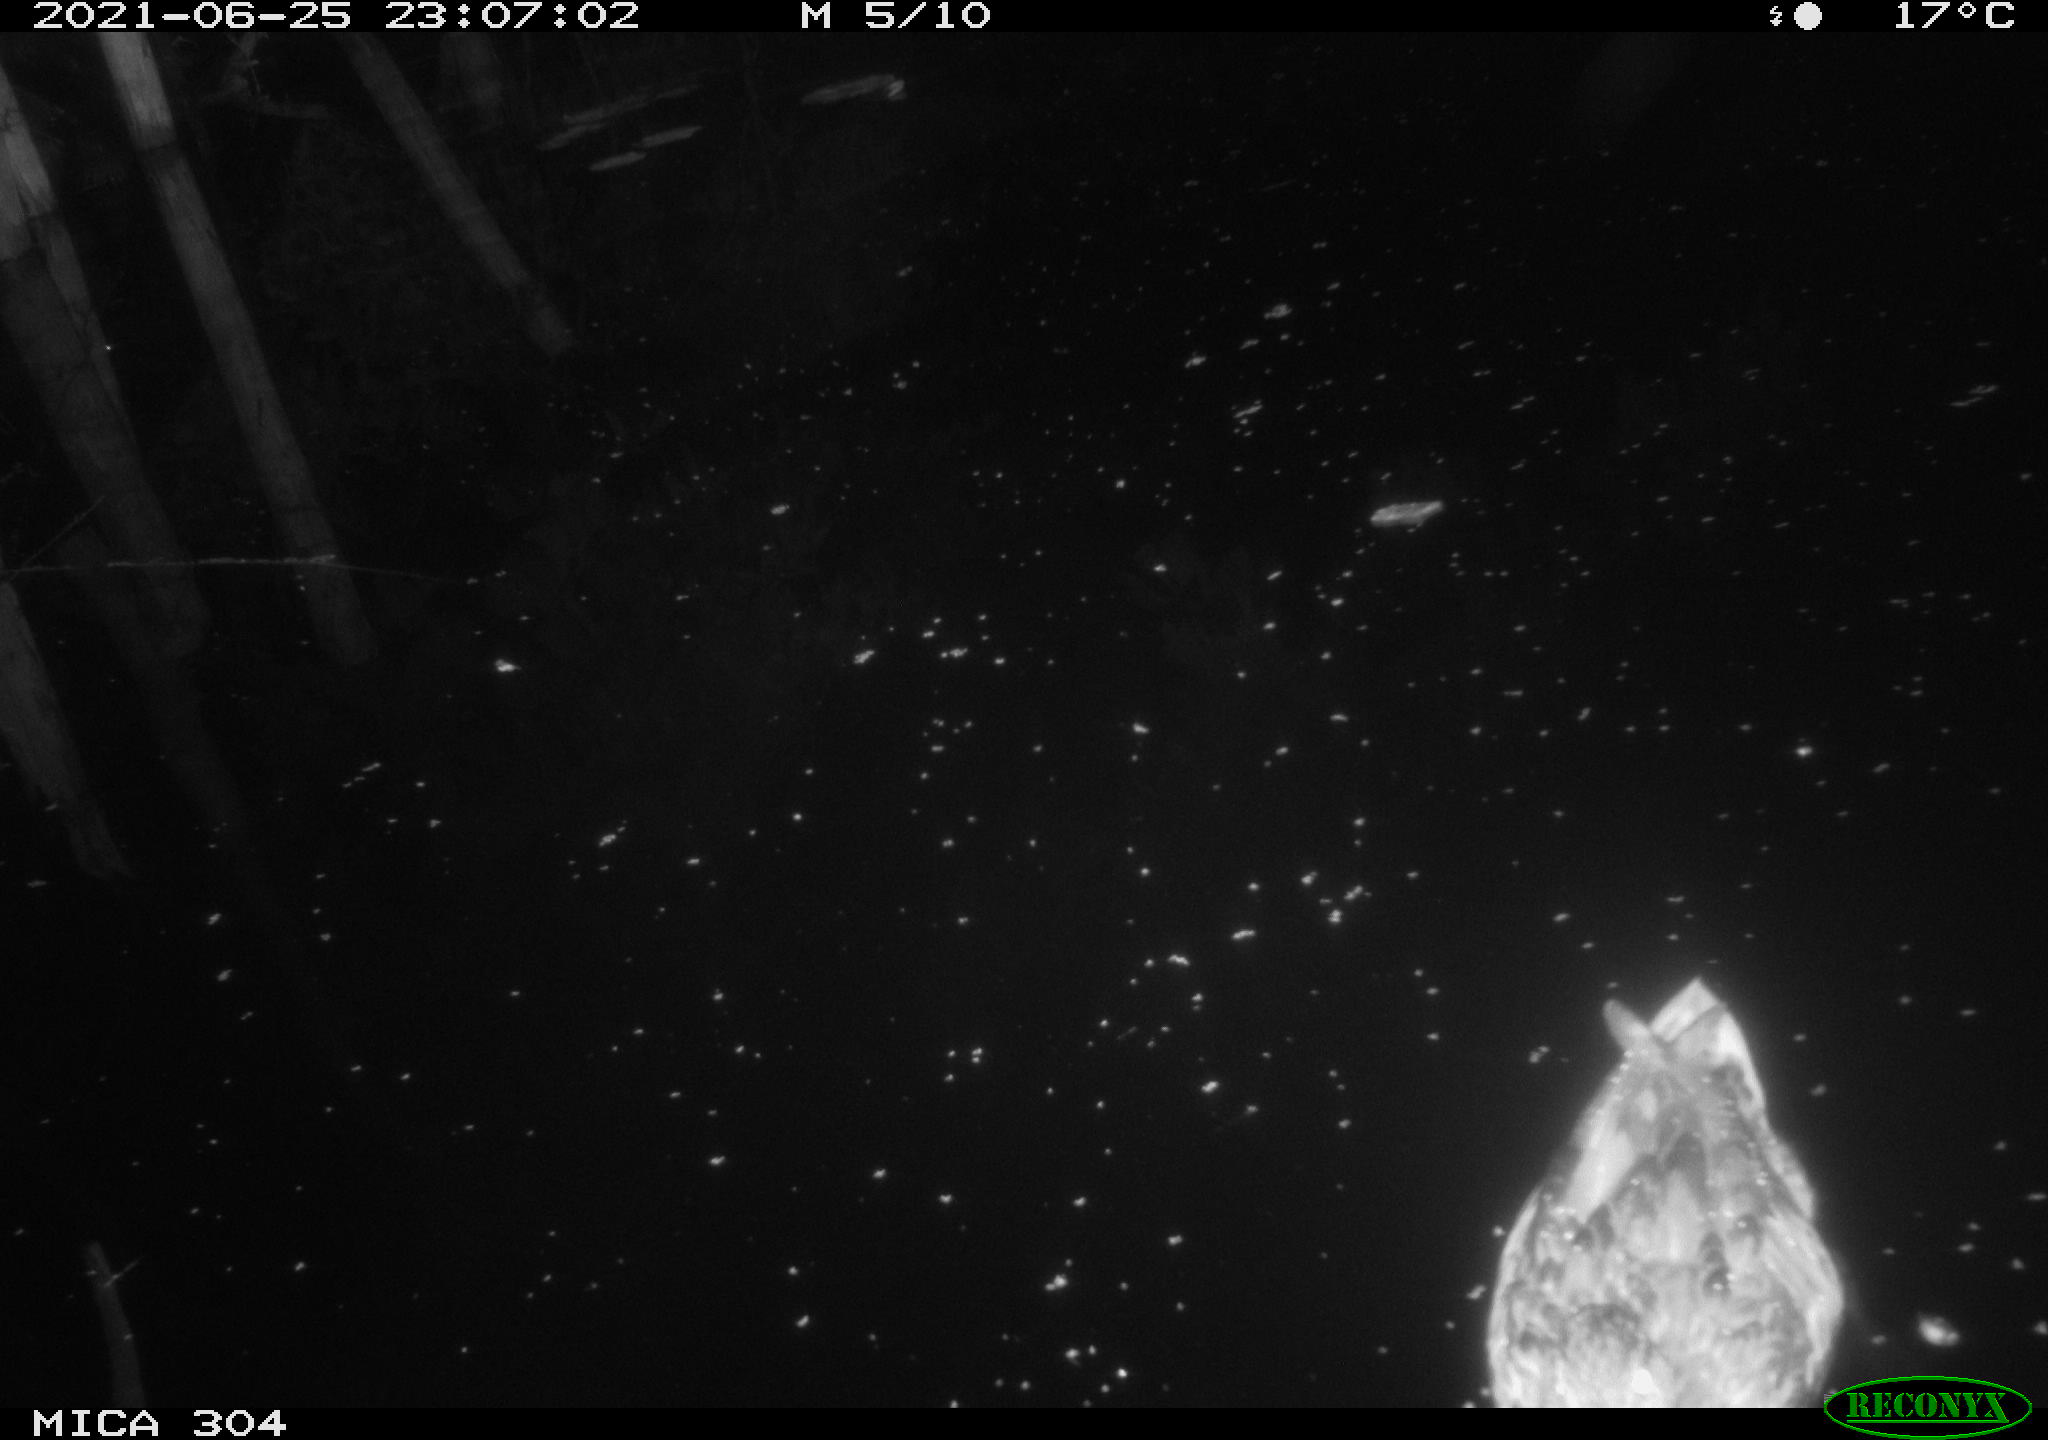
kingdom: Animalia
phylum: Chordata
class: Aves
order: Anseriformes
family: Anatidae
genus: Anas
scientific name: Anas platyrhynchos
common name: Mallard
